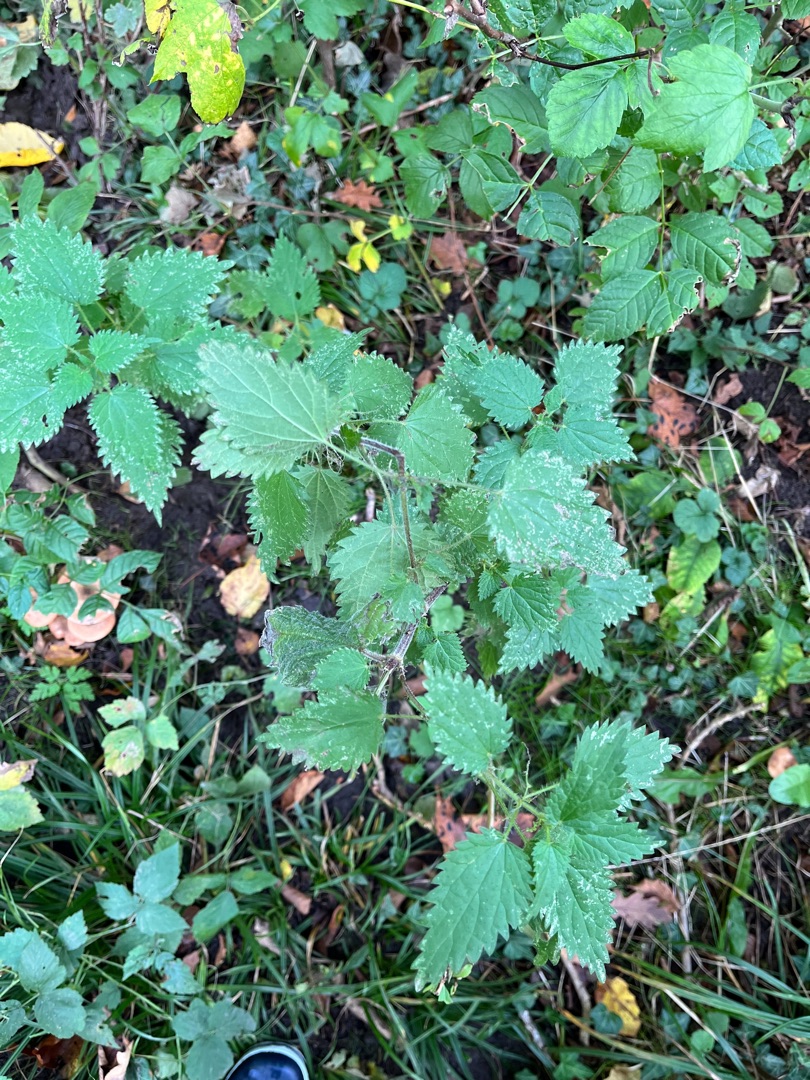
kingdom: Plantae
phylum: Tracheophyta
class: Magnoliopsida
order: Rosales
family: Urticaceae
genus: Urtica
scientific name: Urtica dioica
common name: Stor nælde
